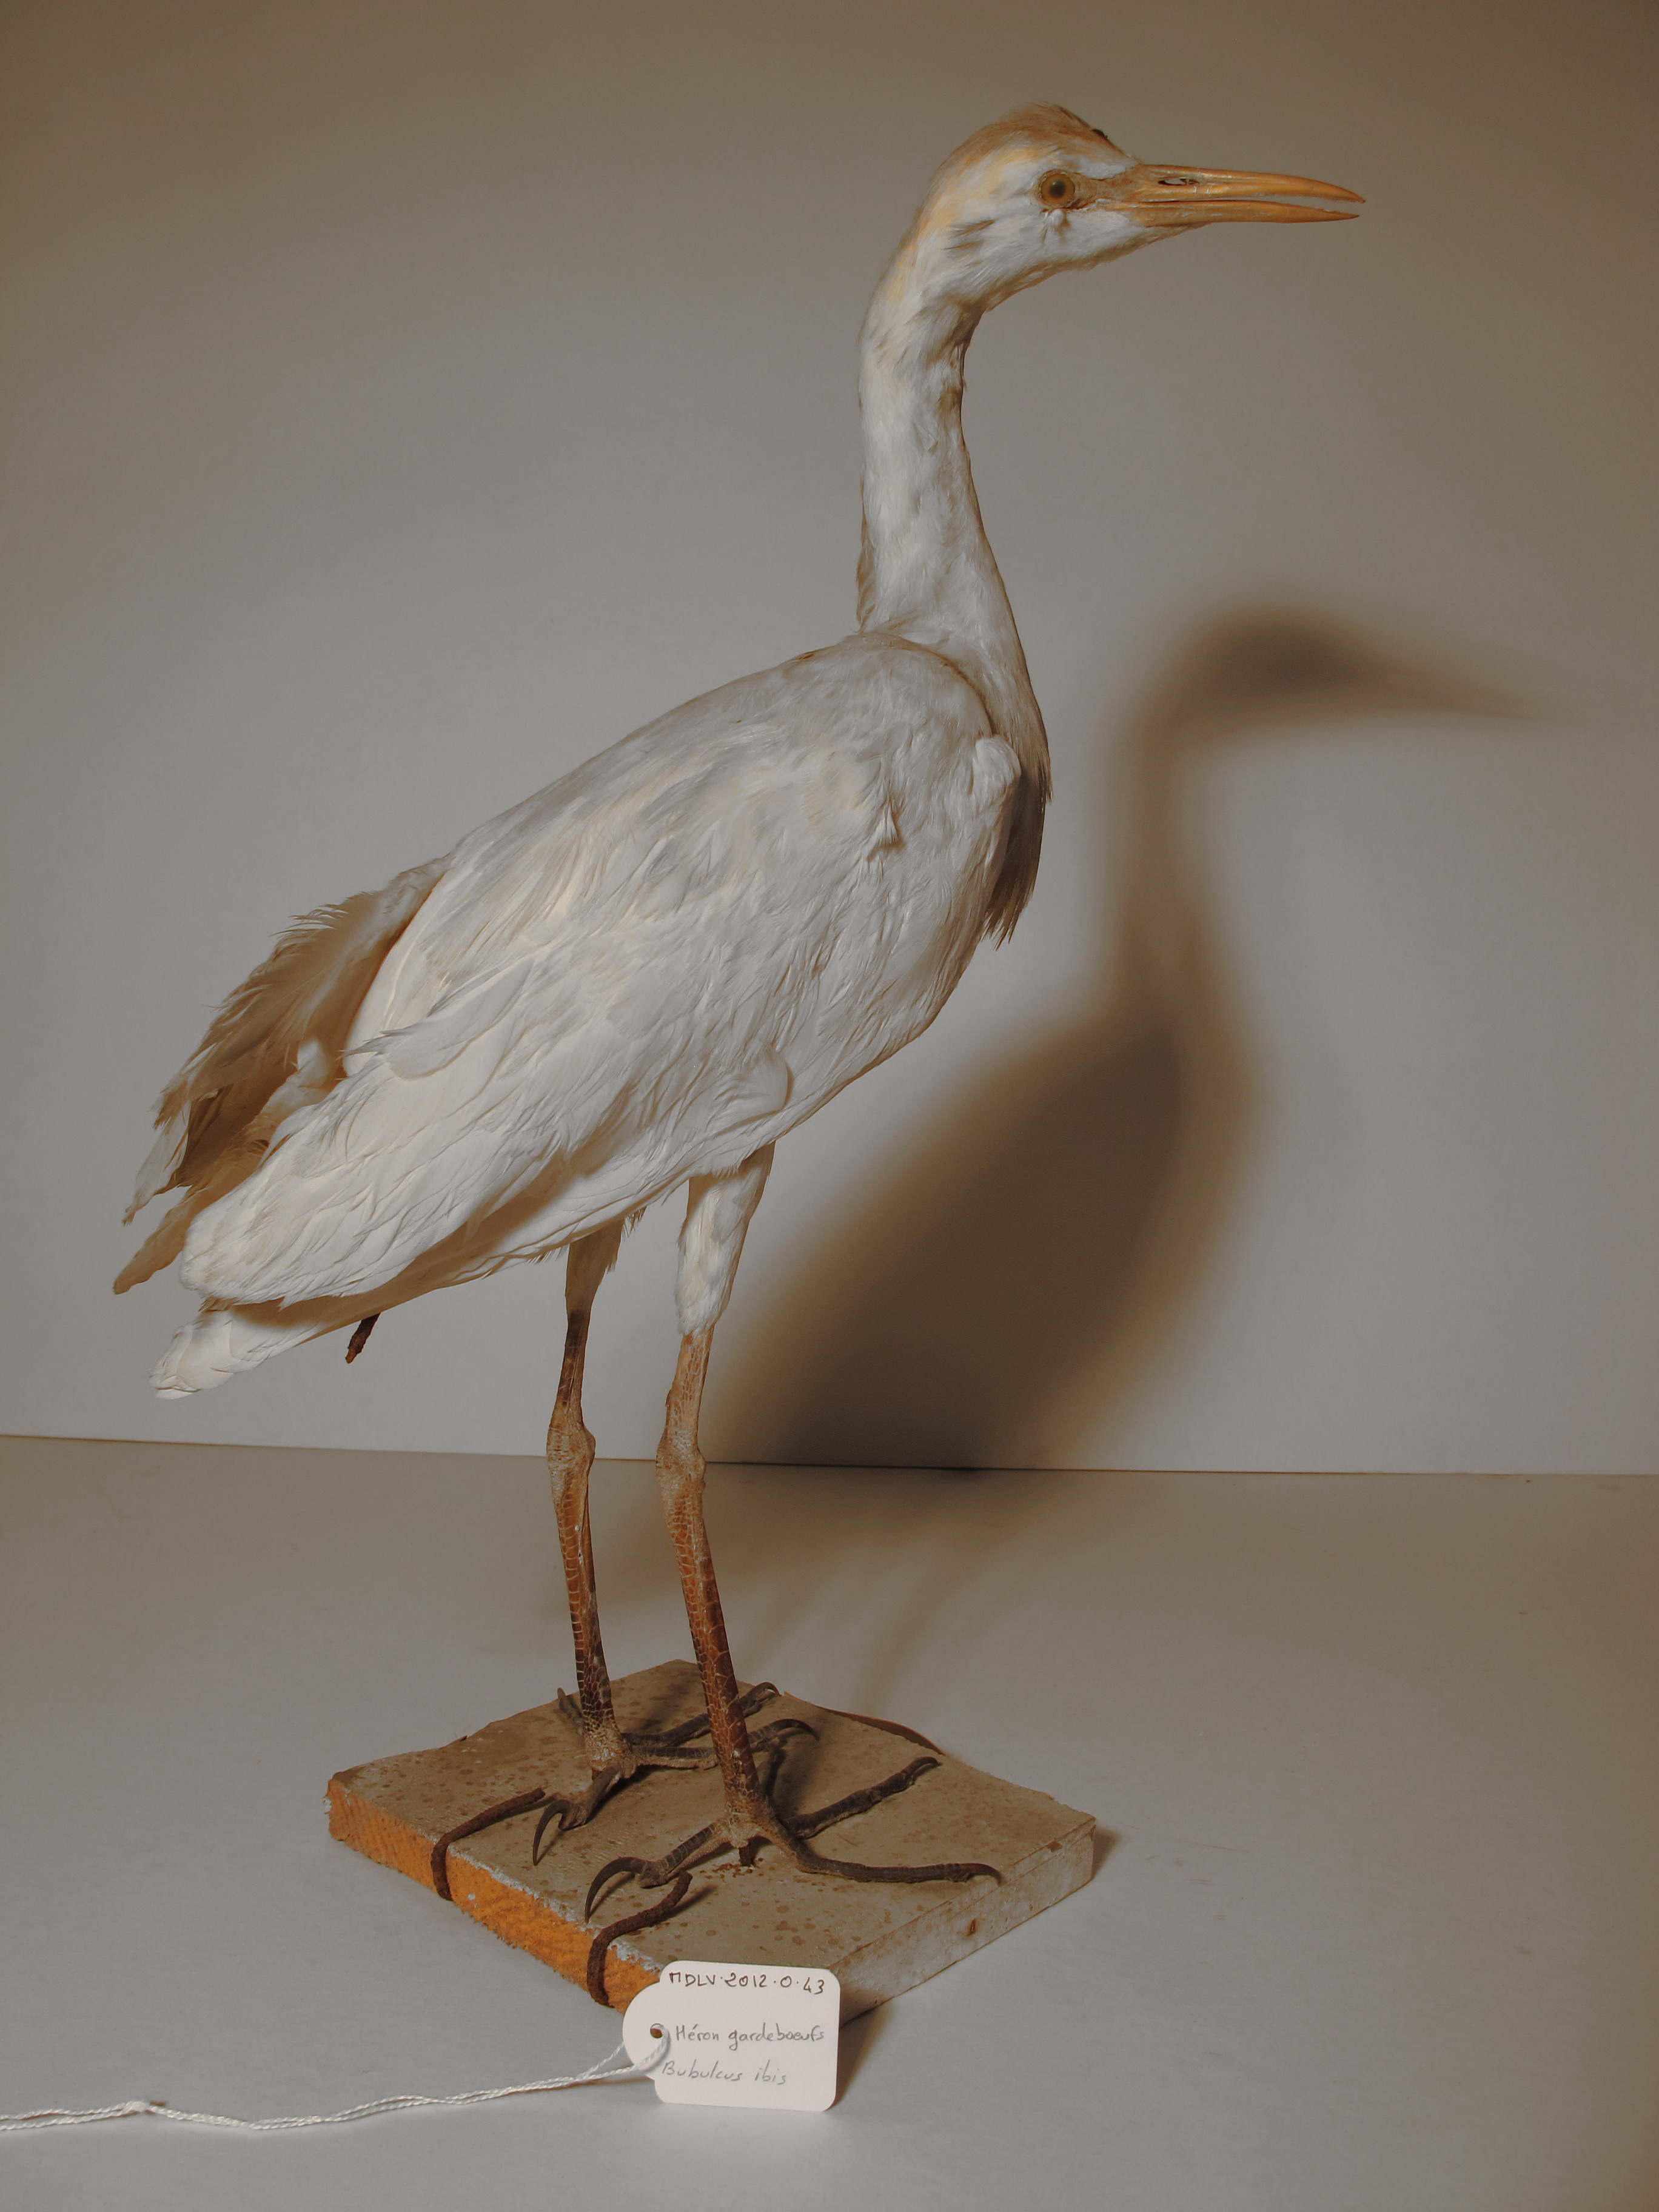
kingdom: Animalia
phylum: Chordata
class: Aves
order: Pelecaniformes
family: Ardeidae
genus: Bubulcus
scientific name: Bubulcus ibis
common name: Cattle Egret
